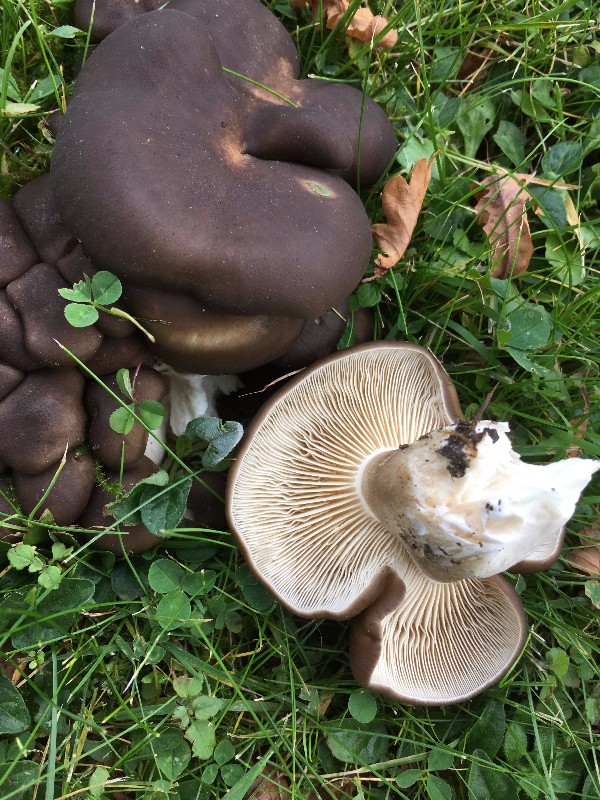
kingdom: Fungi
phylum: Basidiomycota
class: Agaricomycetes
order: Agaricales
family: Lyophyllaceae
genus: Lyophyllum
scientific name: Lyophyllum decastes
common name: Clustered domecap
